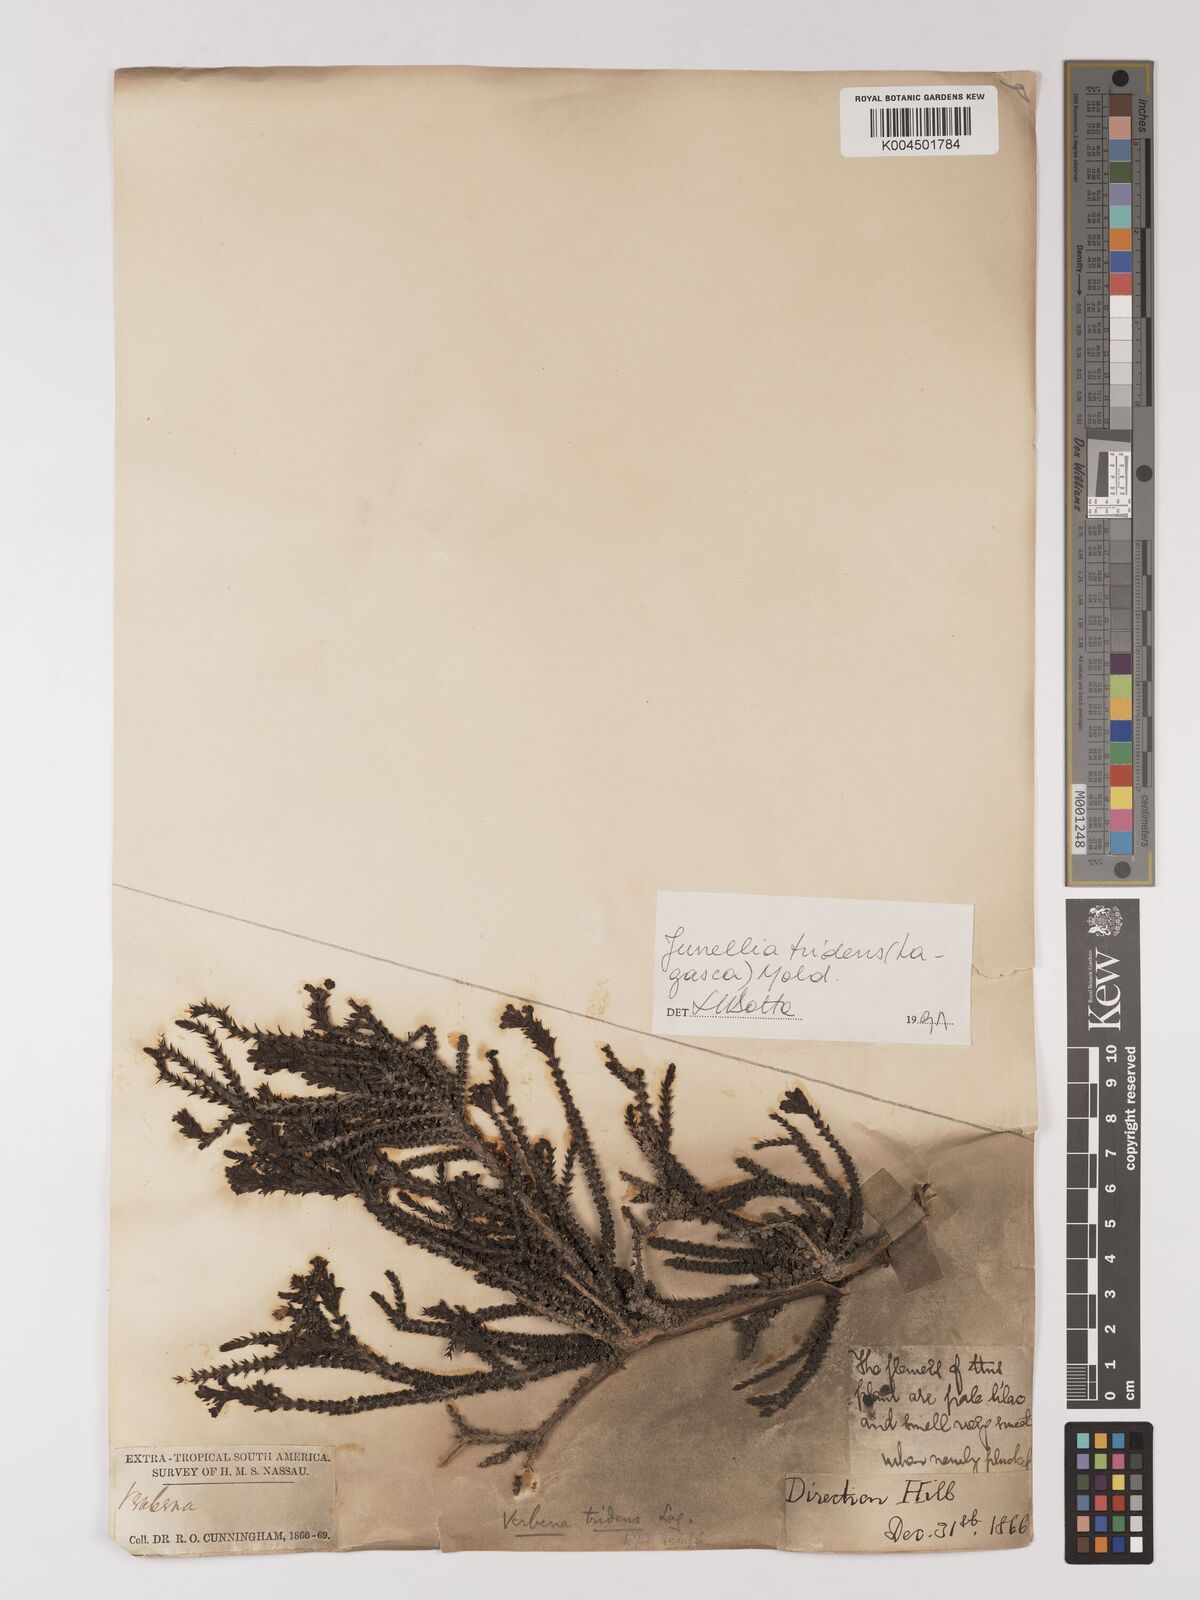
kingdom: Plantae
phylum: Tracheophyta
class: Magnoliopsida
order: Lamiales
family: Verbenaceae
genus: Mulguraea
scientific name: Mulguraea tridens
